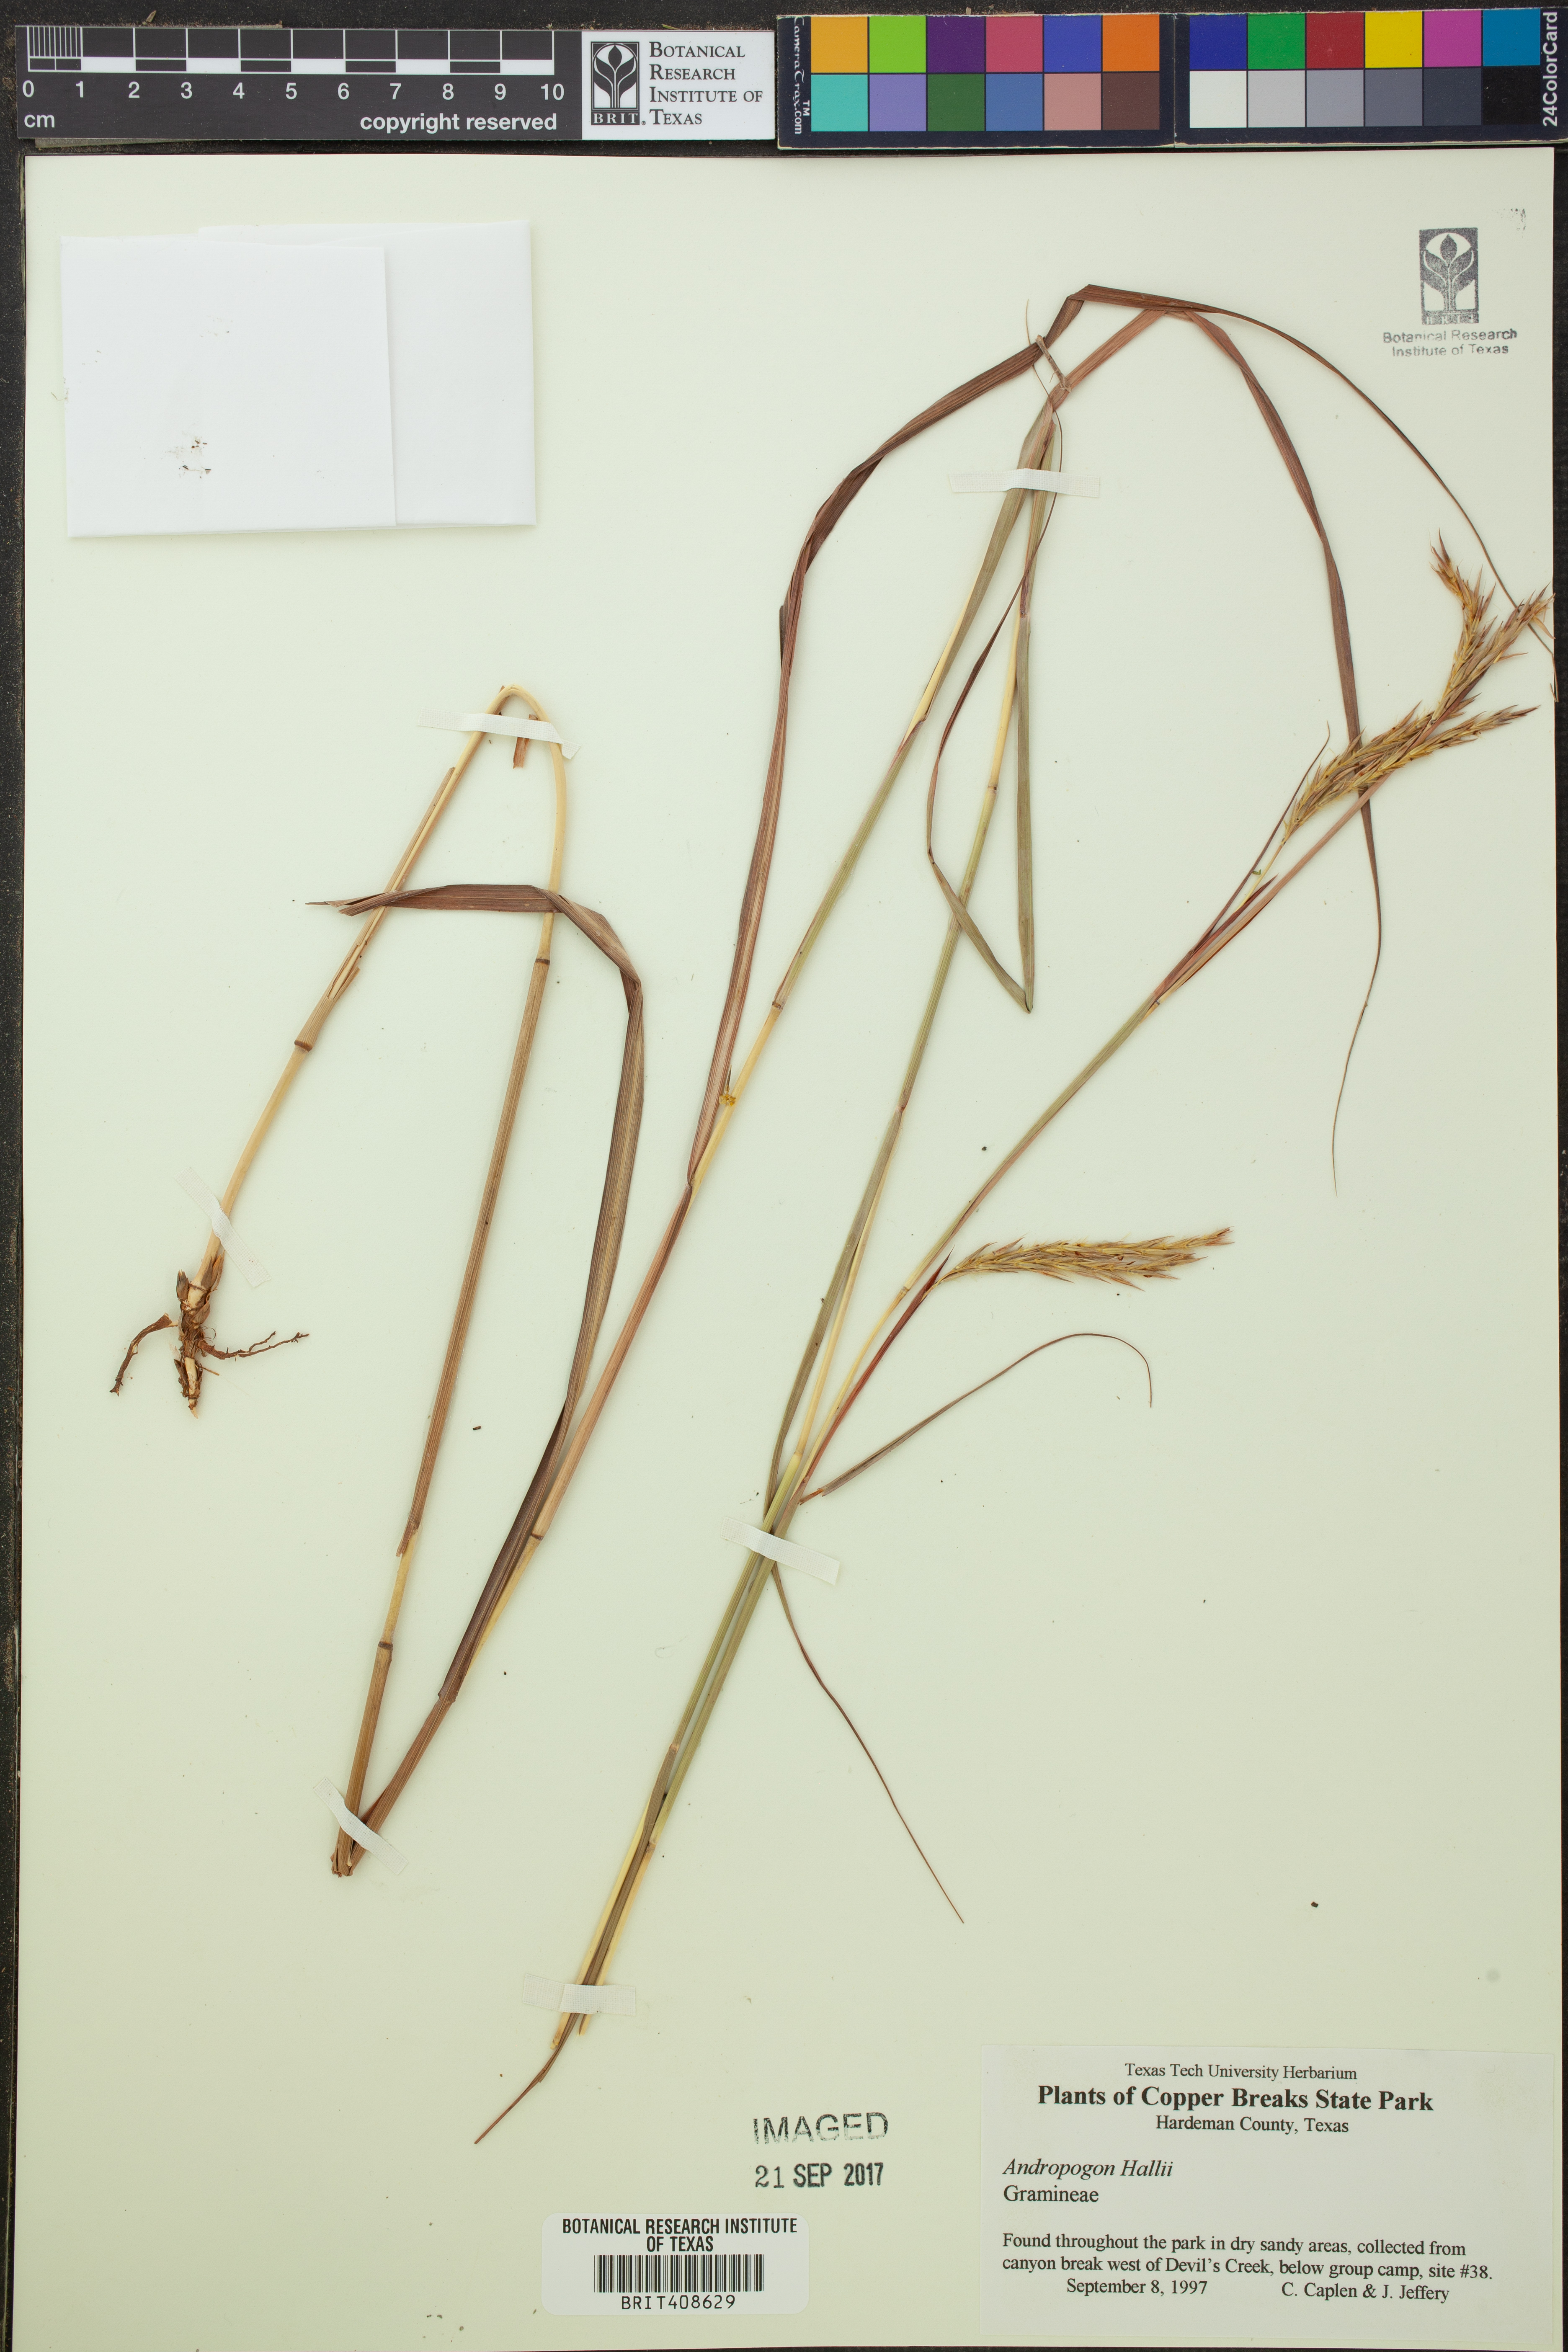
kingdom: Plantae
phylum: Tracheophyta
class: Liliopsida
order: Poales
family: Poaceae
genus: Andropogon
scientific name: Andropogon hallii
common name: Sand bluestem
